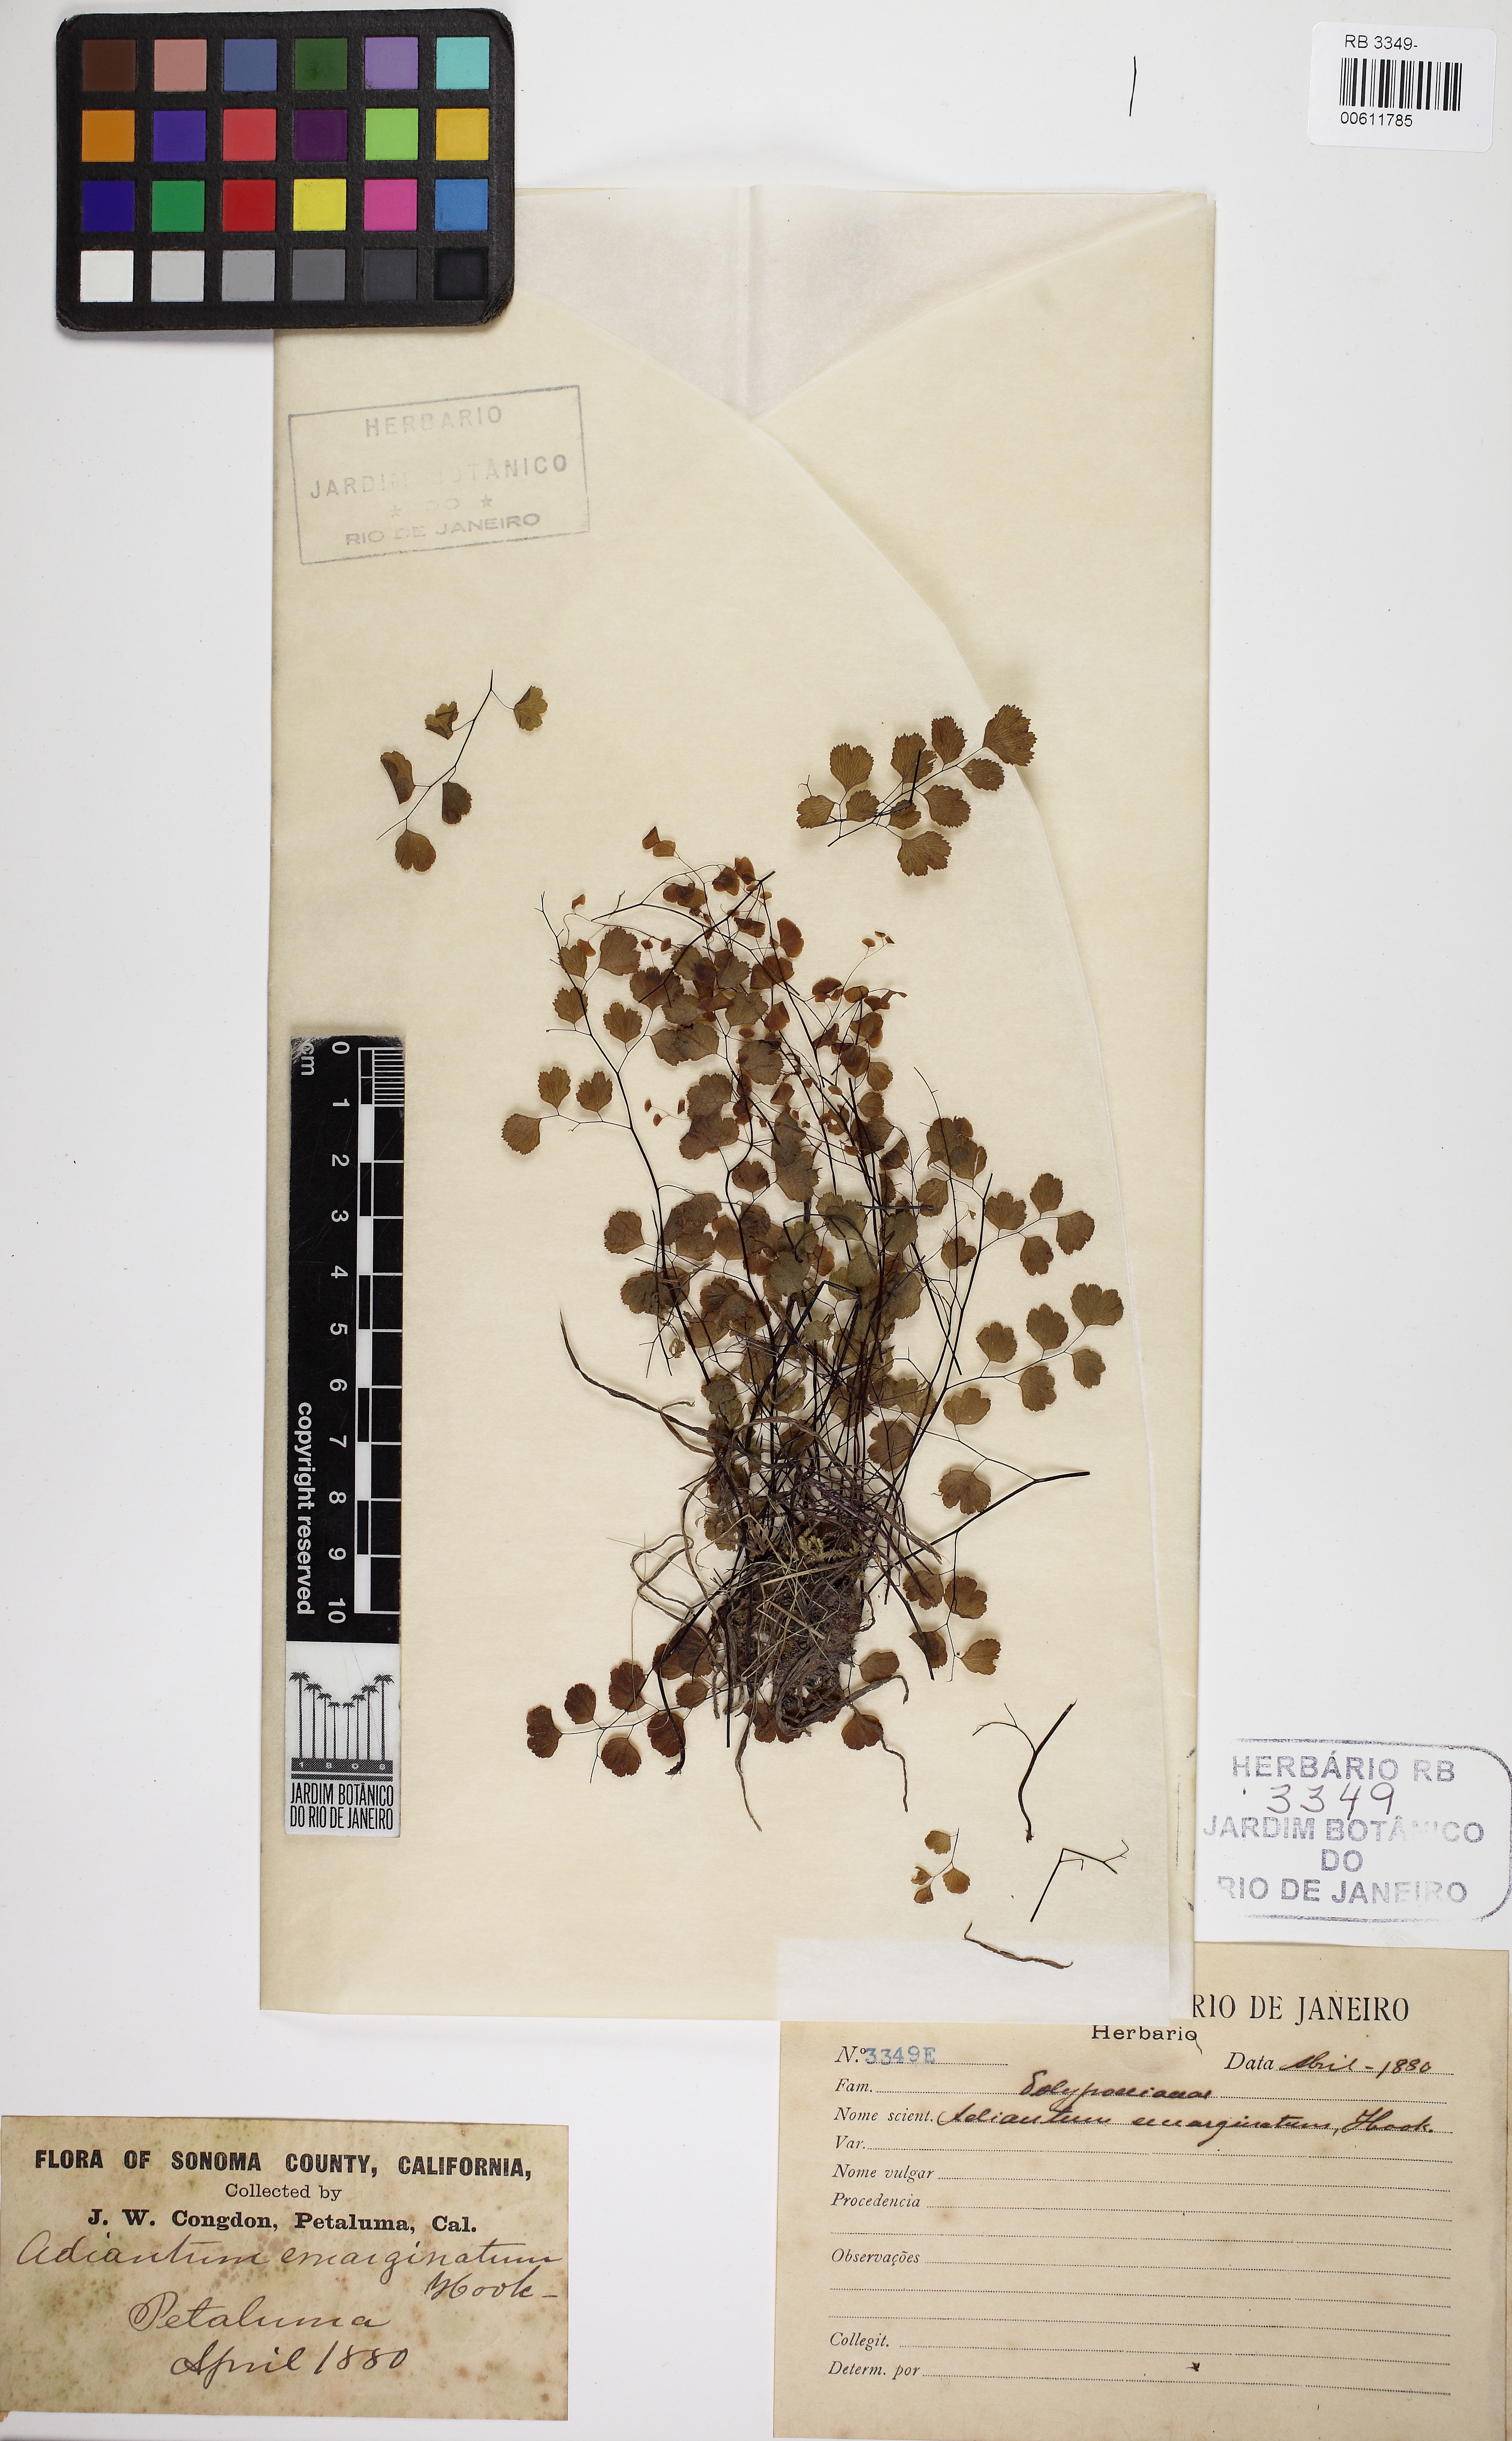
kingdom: Plantae
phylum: Tracheophyta
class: Polypodiopsida
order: Polypodiales
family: Pteridaceae
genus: Adiantum
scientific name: Adiantum emarginatum
